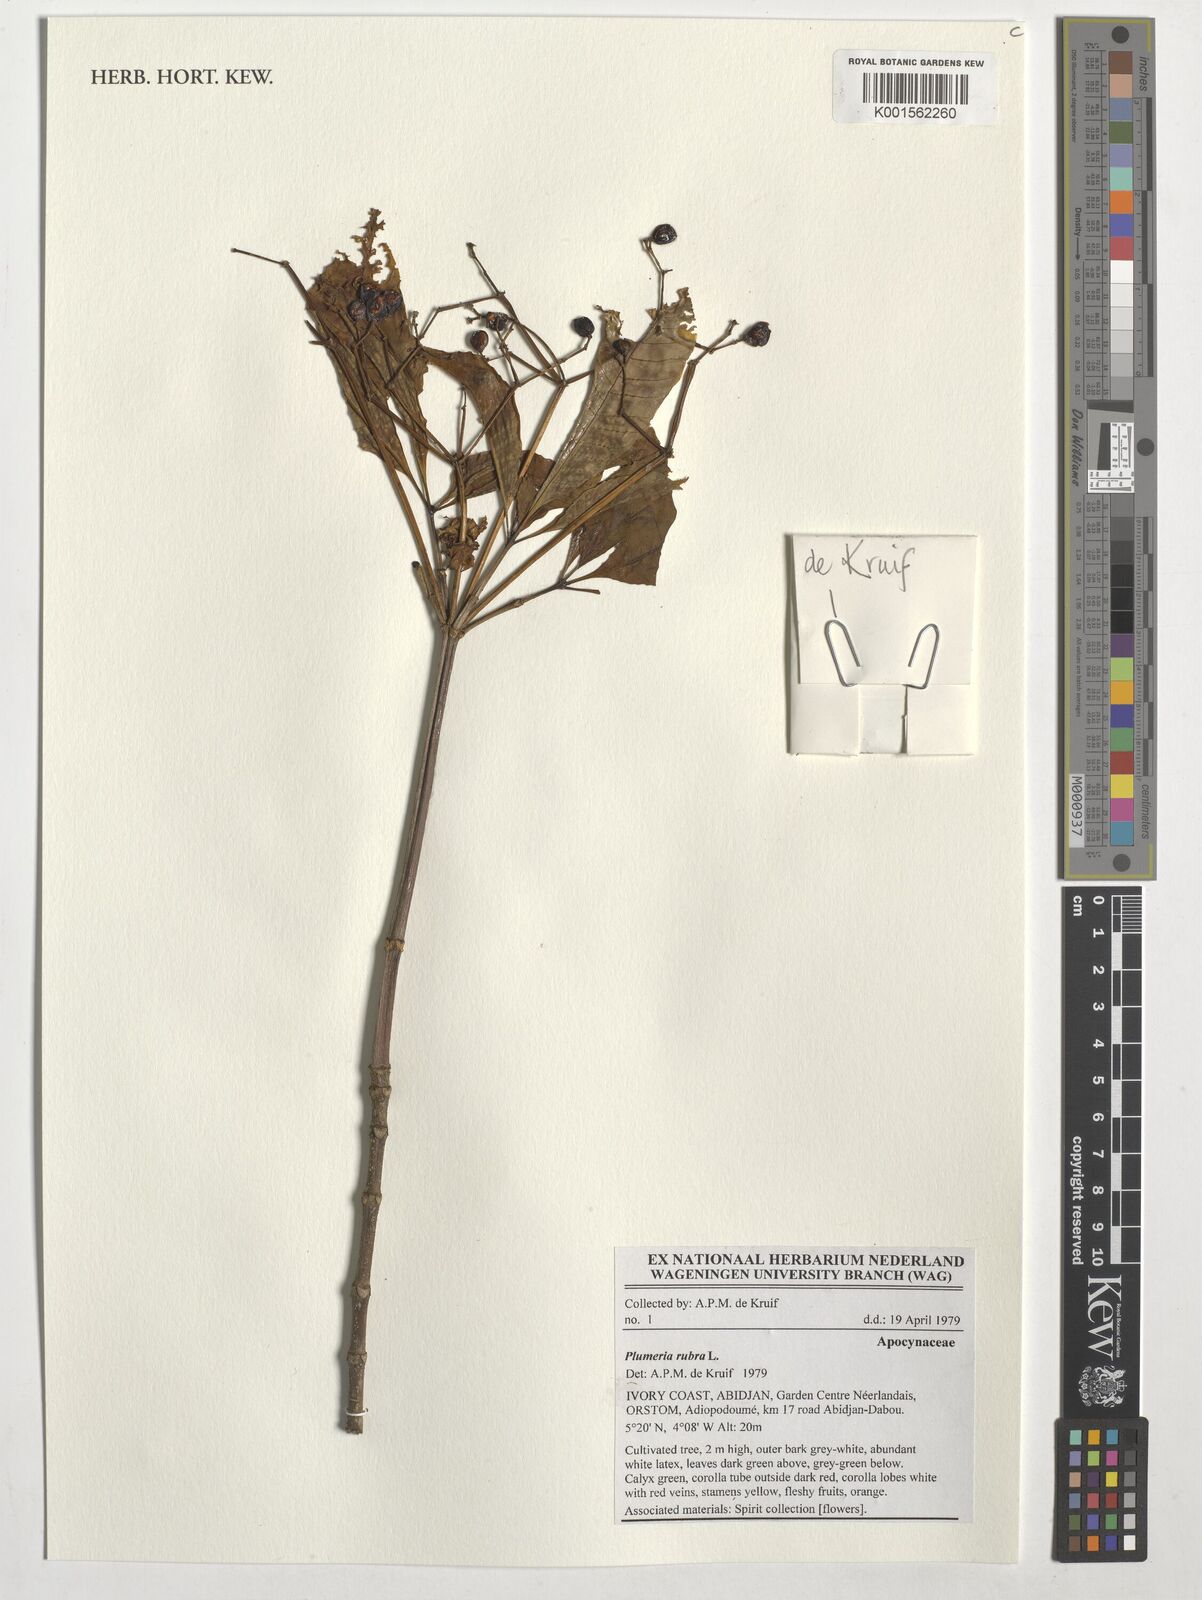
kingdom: Plantae
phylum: Tracheophyta
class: Magnoliopsida
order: Gentianales
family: Apocynaceae
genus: Rauvolfia
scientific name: Rauvolfia vomitoria
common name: Poison devil's-pepper
